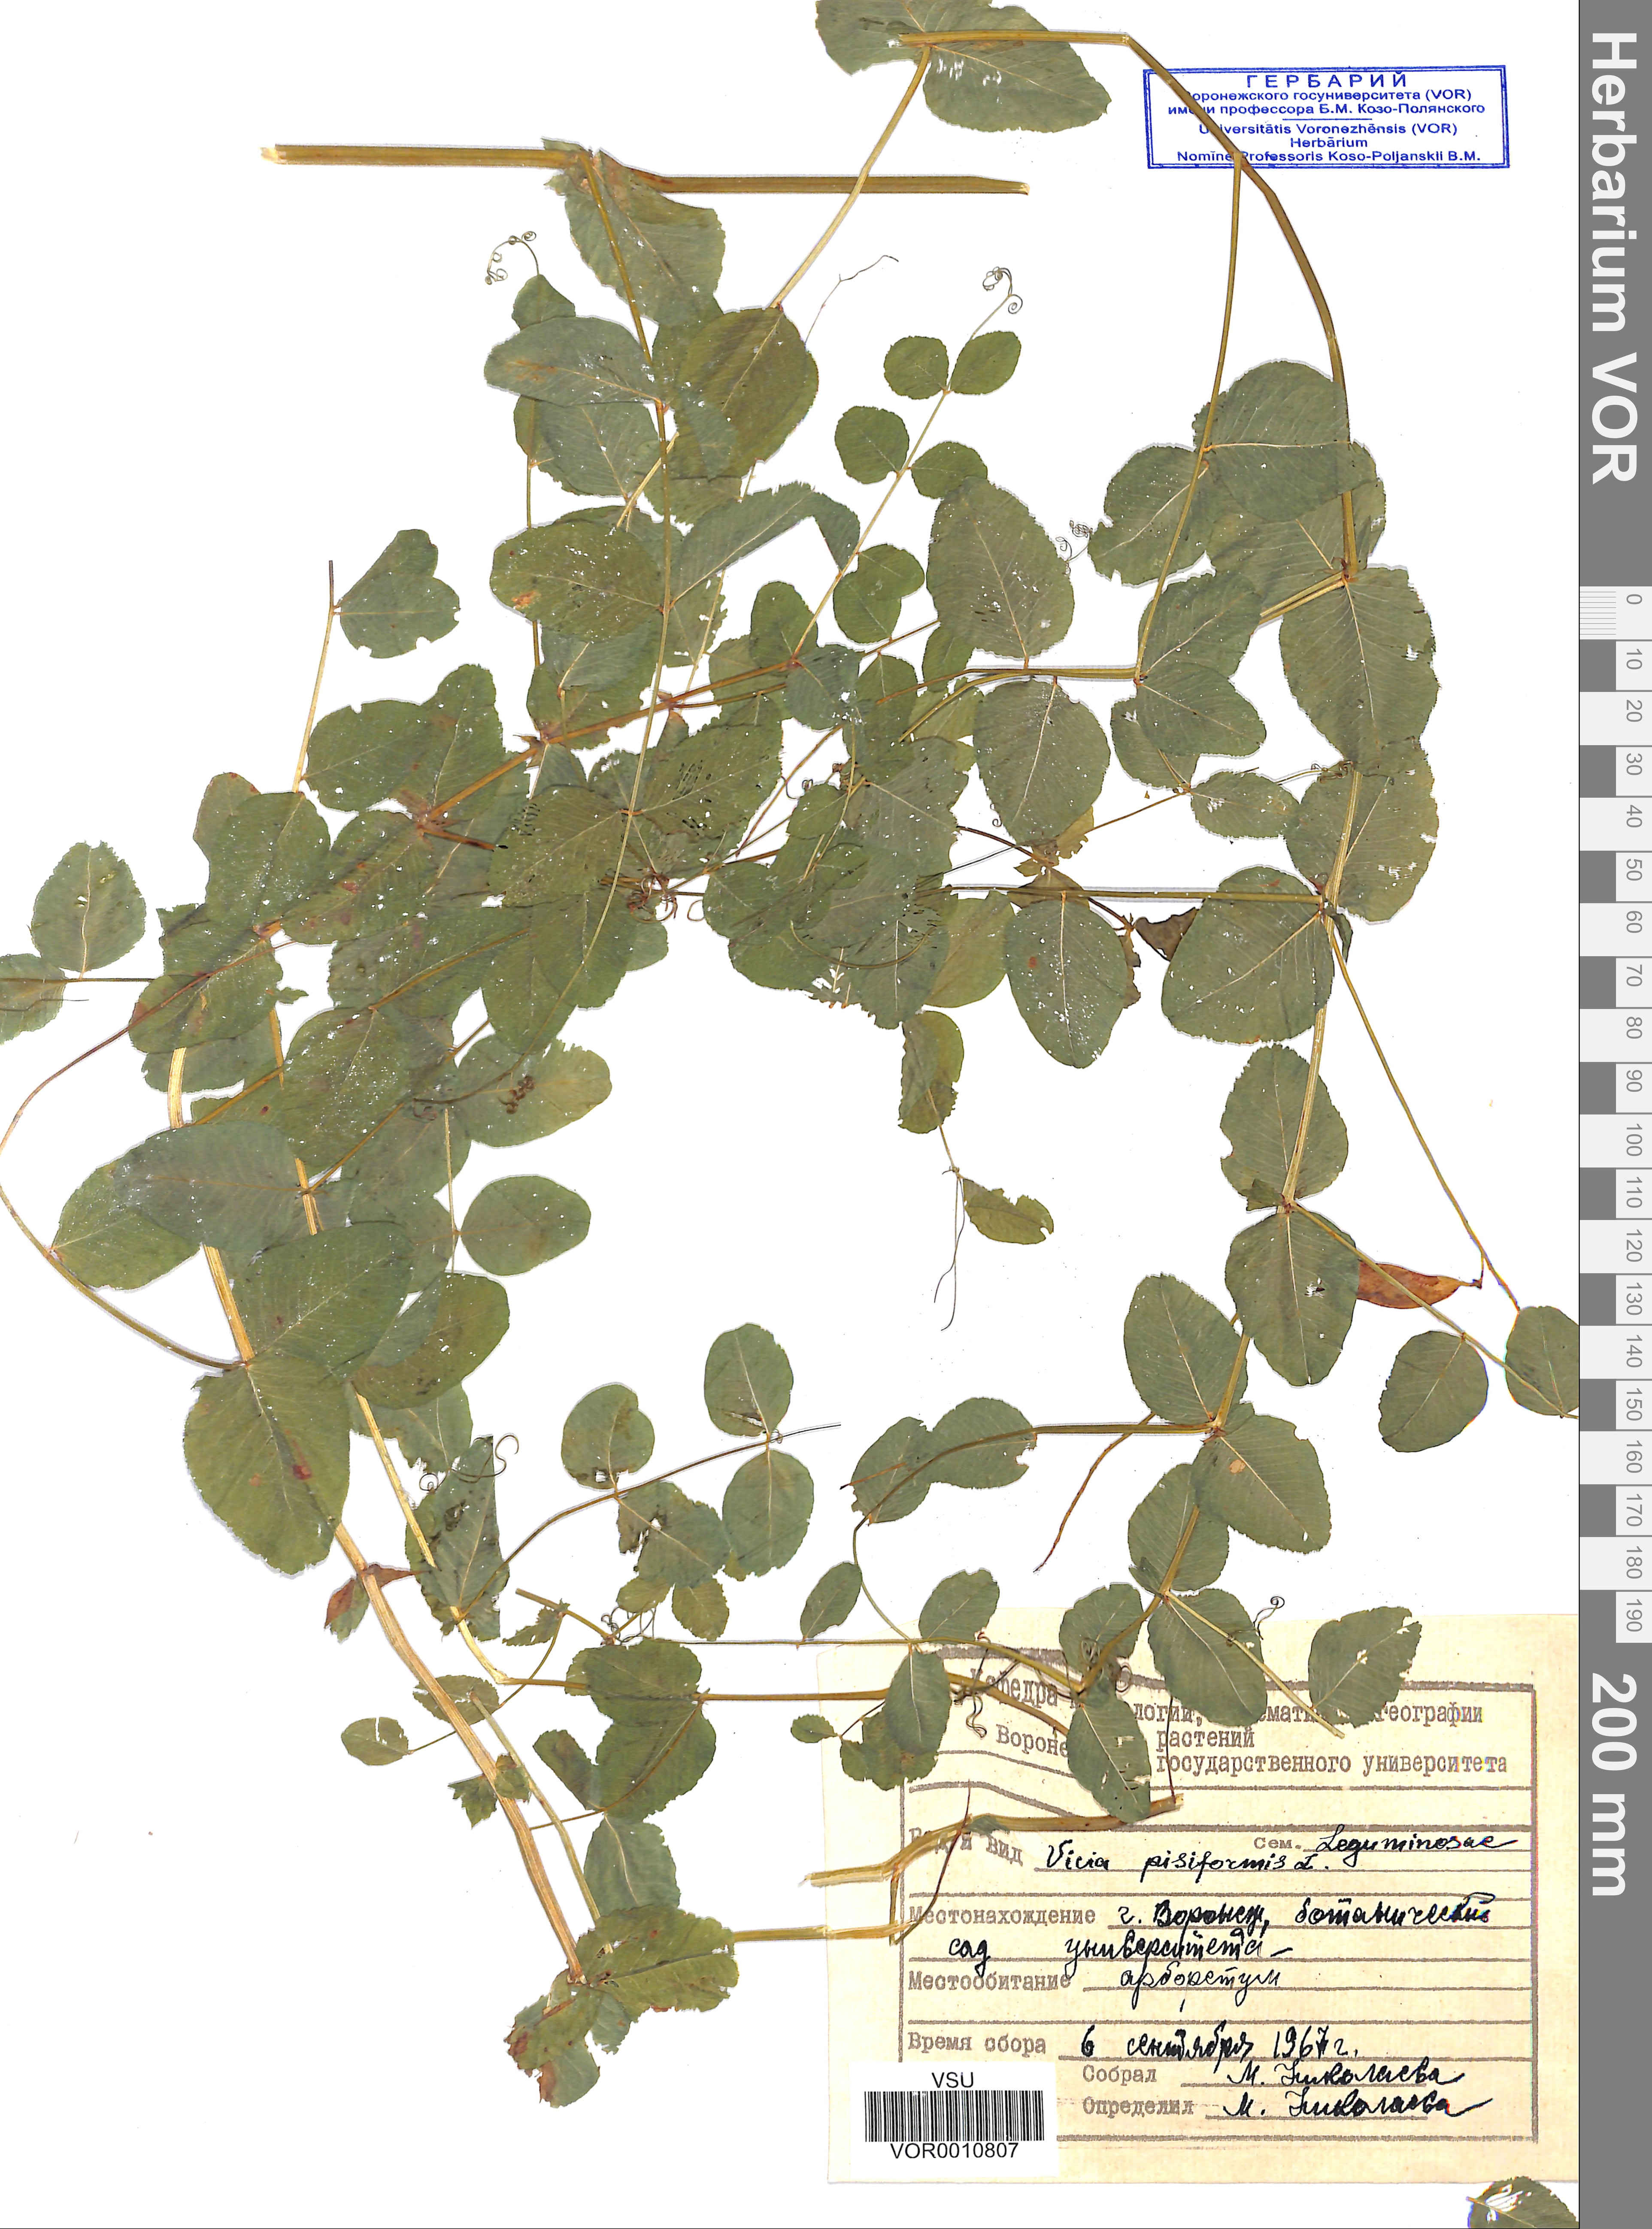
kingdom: Plantae
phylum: Tracheophyta
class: Magnoliopsida
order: Fabales
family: Fabaceae
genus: Vicia
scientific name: Vicia pisiformis
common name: Pale-flower vetch
